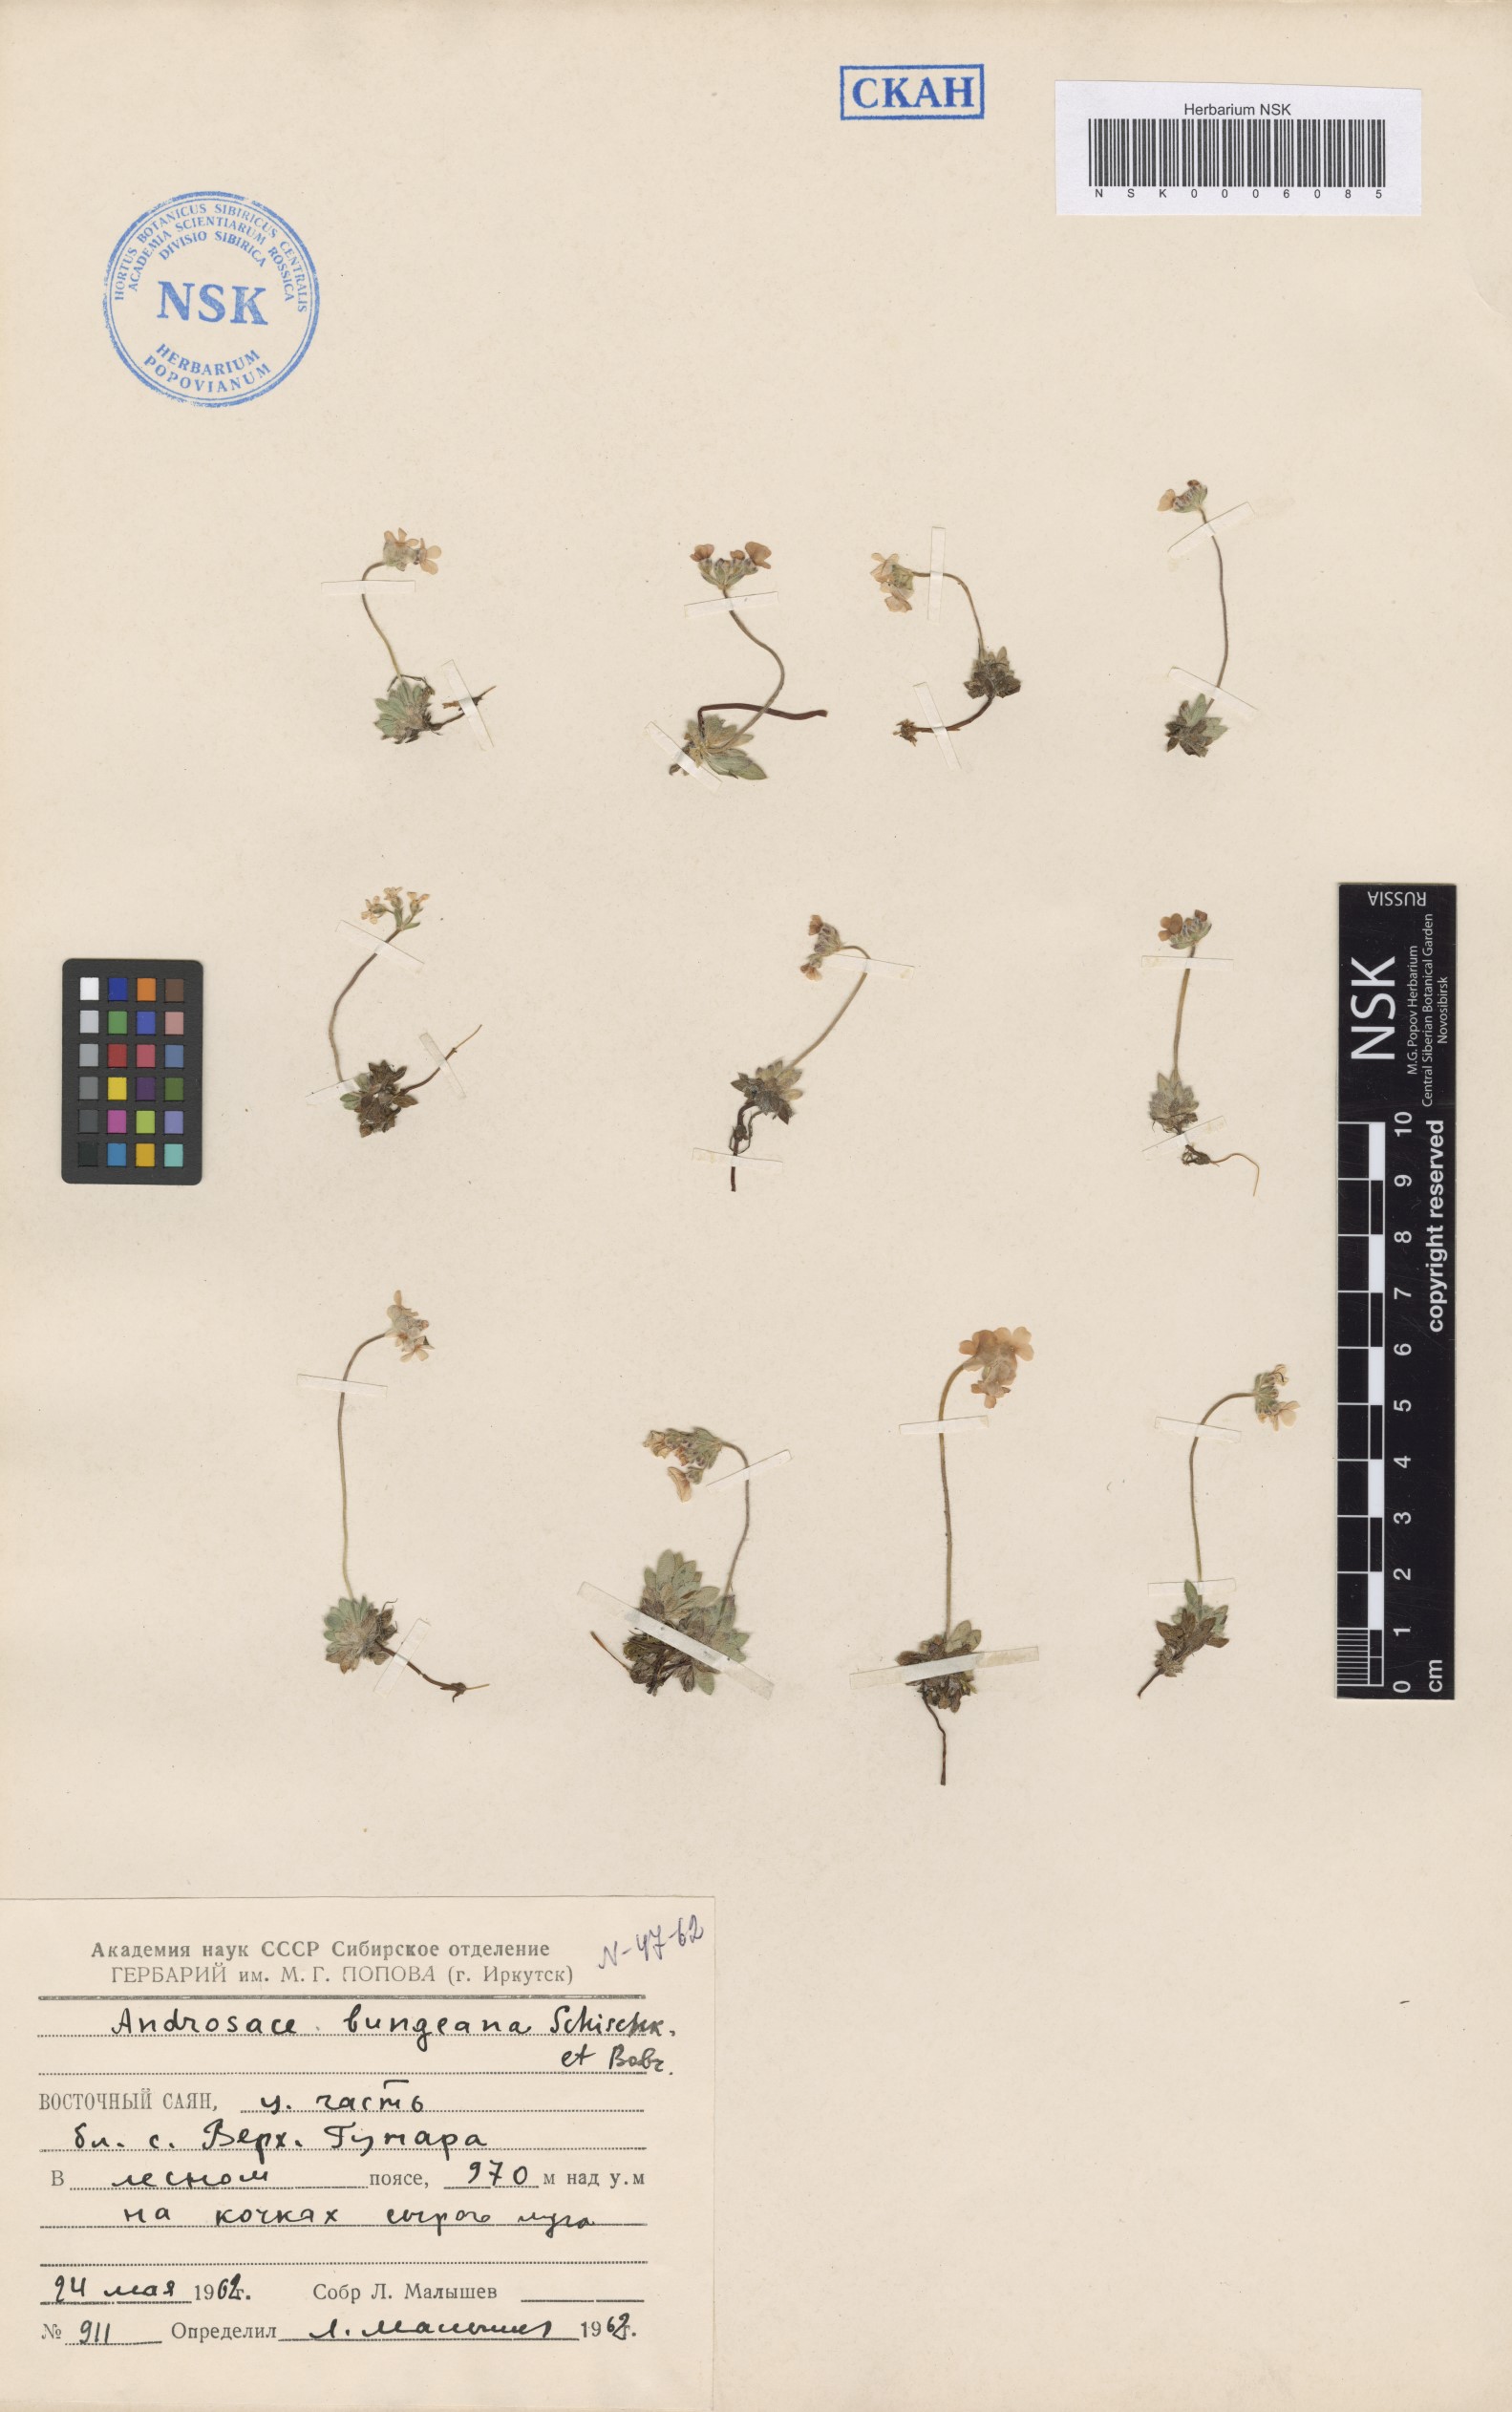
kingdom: Plantae
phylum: Tracheophyta
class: Magnoliopsida
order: Ericales
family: Primulaceae
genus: Androsace
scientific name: Androsace bungeana
